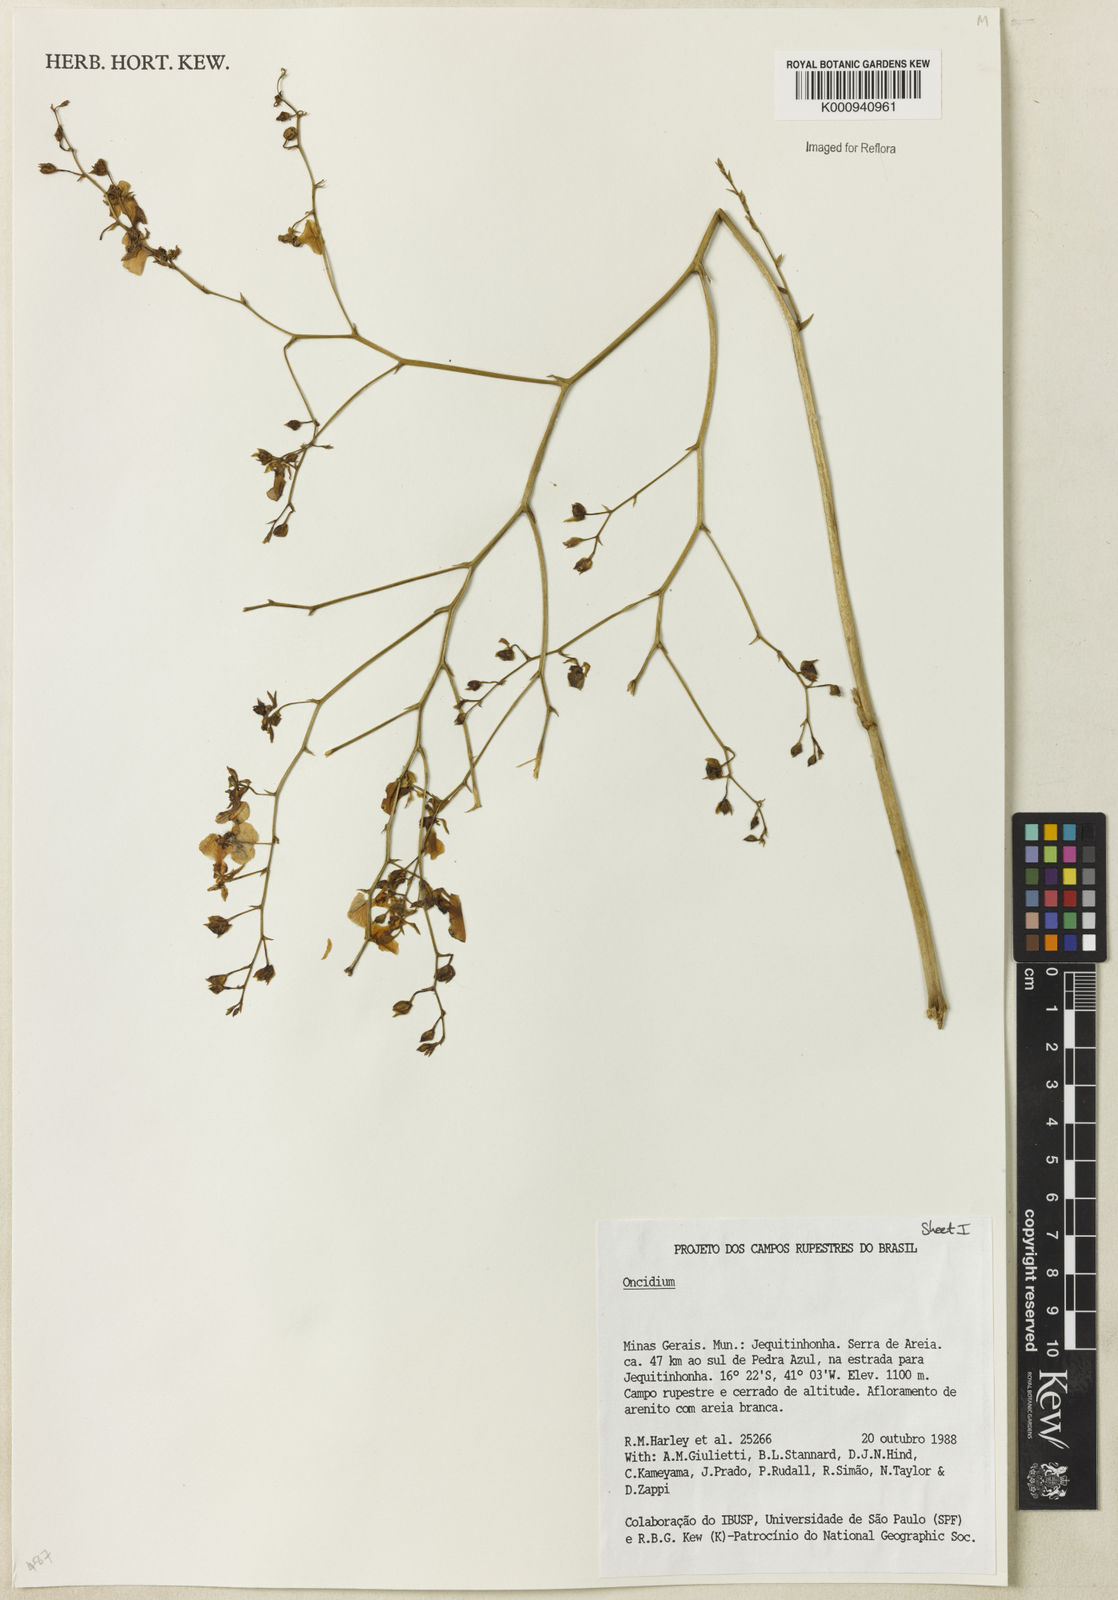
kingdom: Plantae
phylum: Tracheophyta
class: Liliopsida
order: Asparagales
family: Orchidaceae
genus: Oncidium
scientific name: Oncidium
